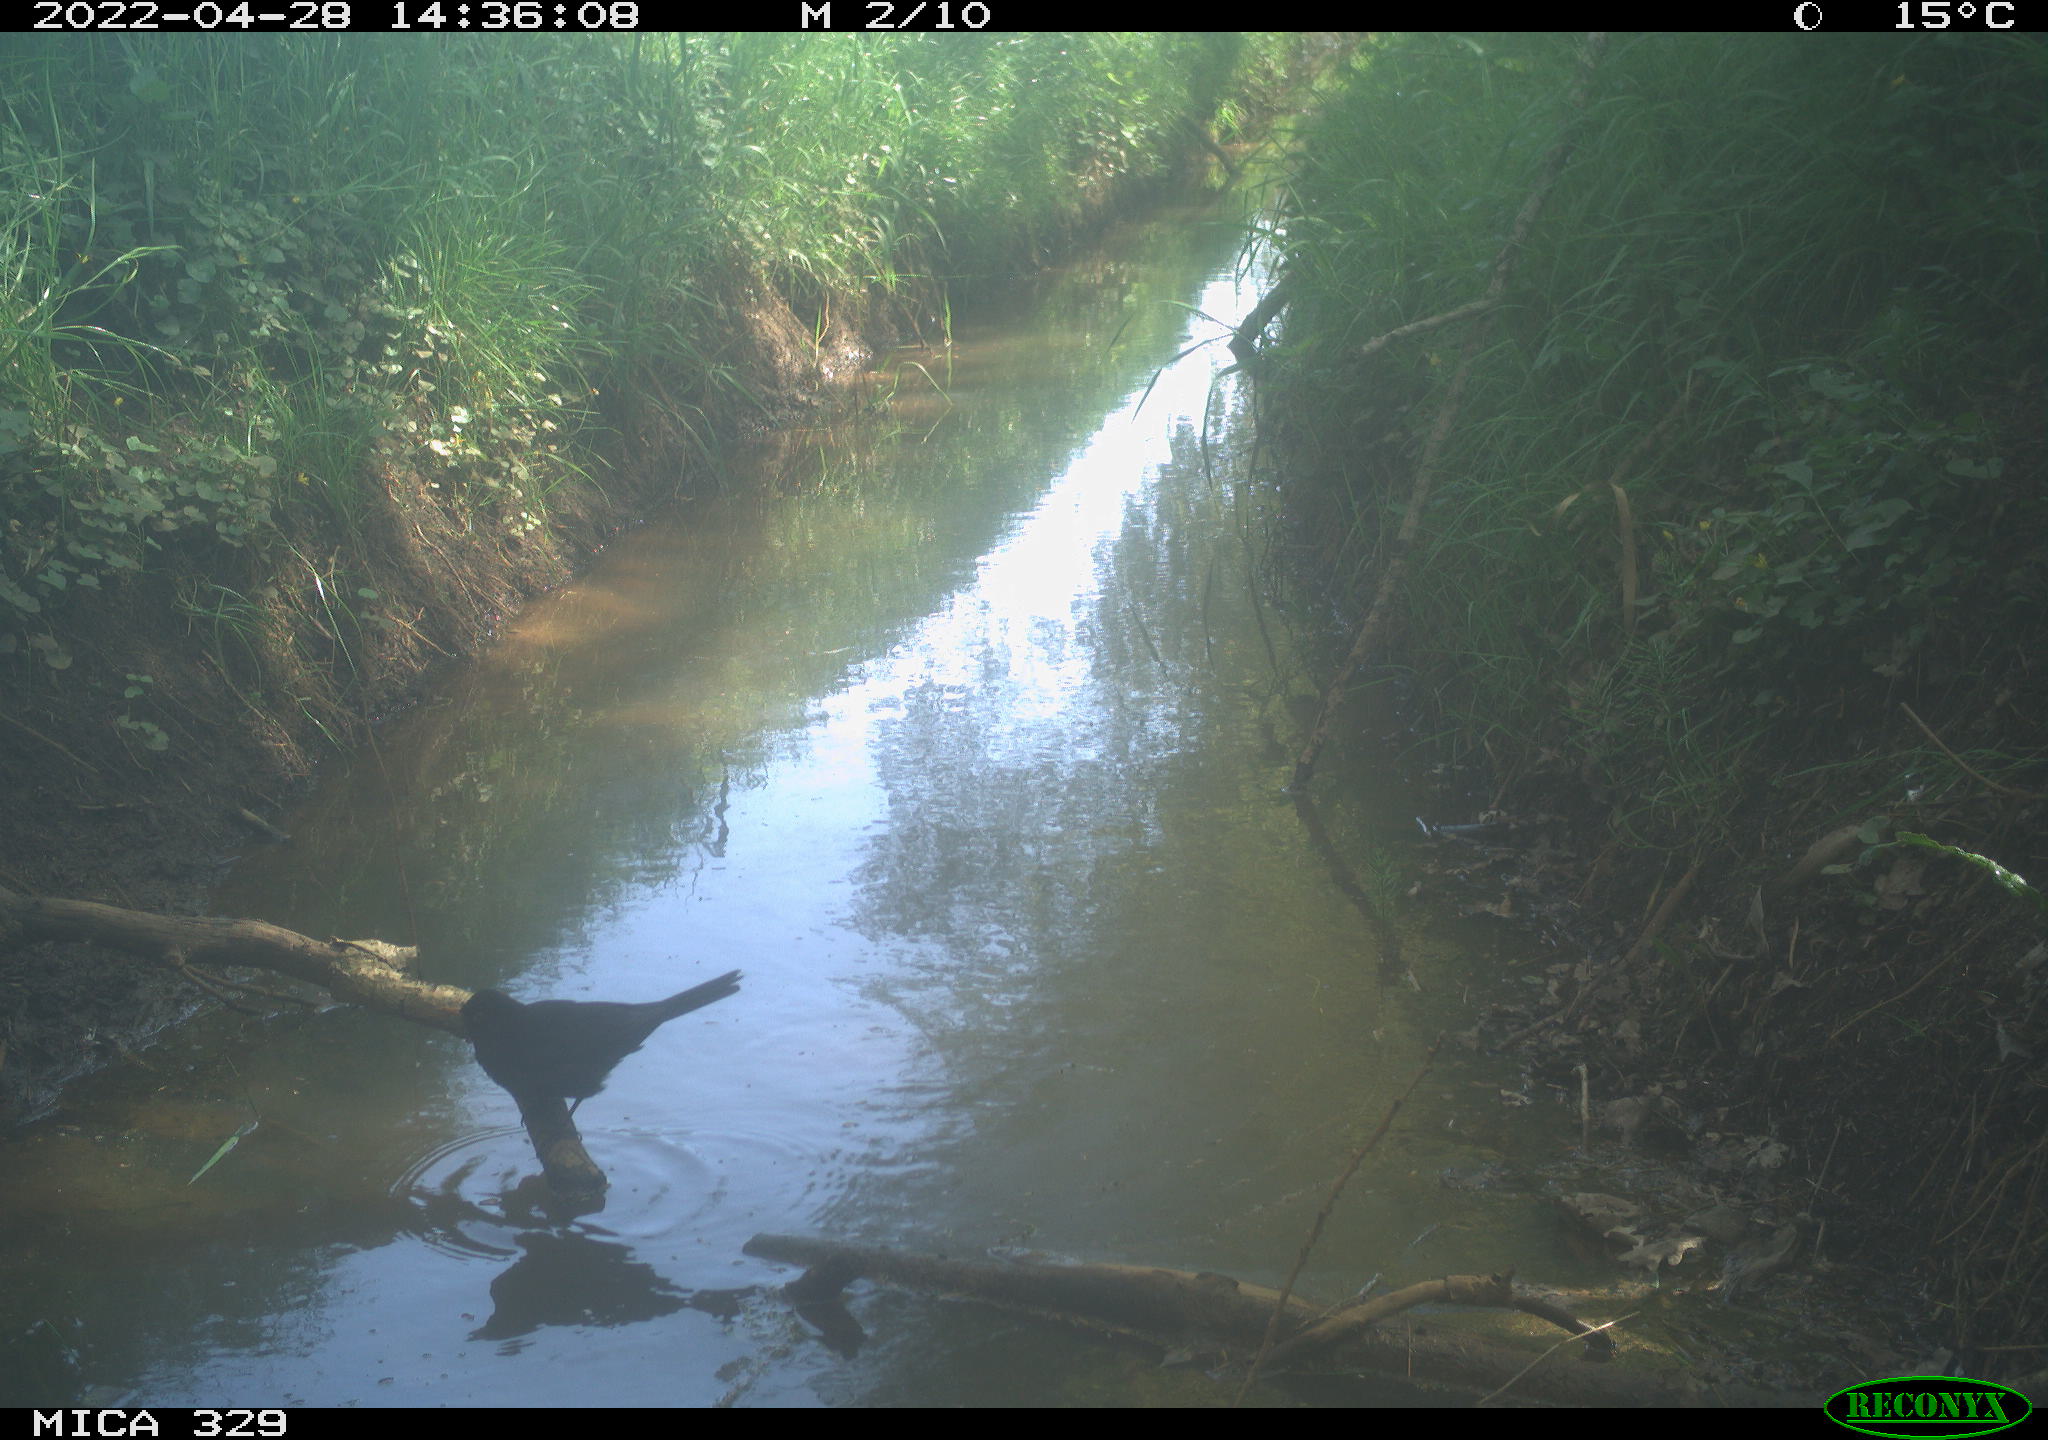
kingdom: Animalia
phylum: Chordata
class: Aves
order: Passeriformes
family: Turdidae
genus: Turdus
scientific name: Turdus merula
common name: Common blackbird
